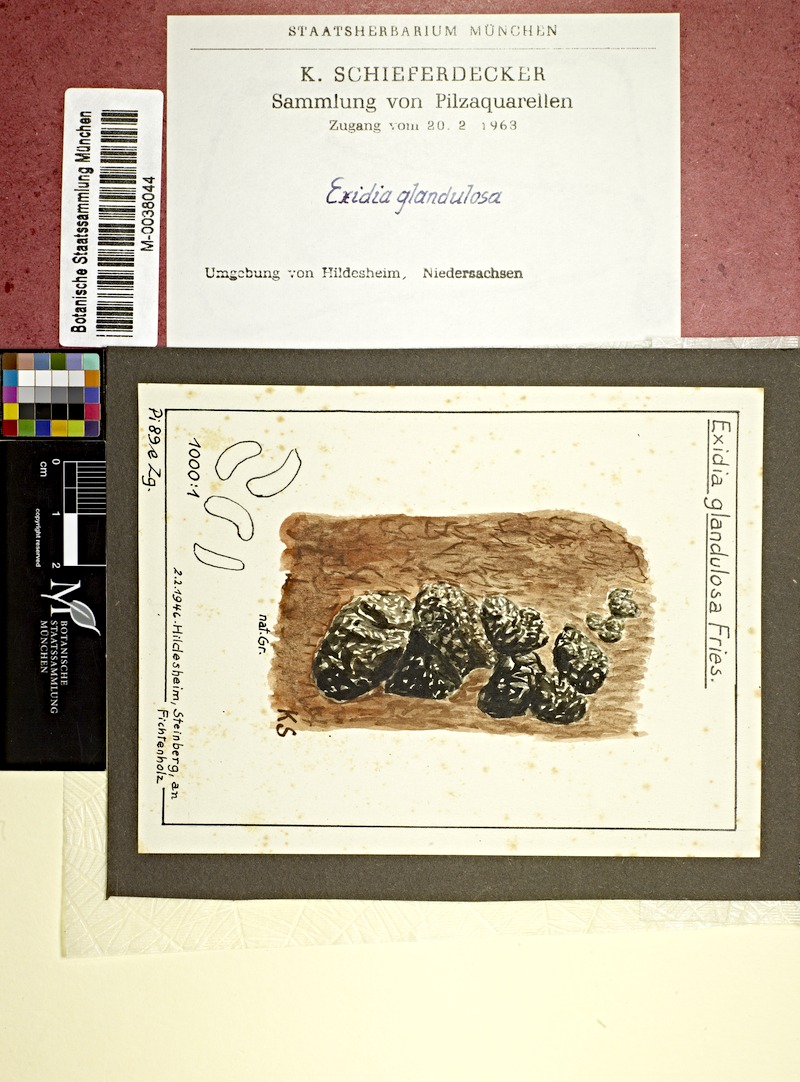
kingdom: Plantae
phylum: Tracheophyta
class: Pinopsida
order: Pinales
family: Pinaceae
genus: Picea
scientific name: Picea
